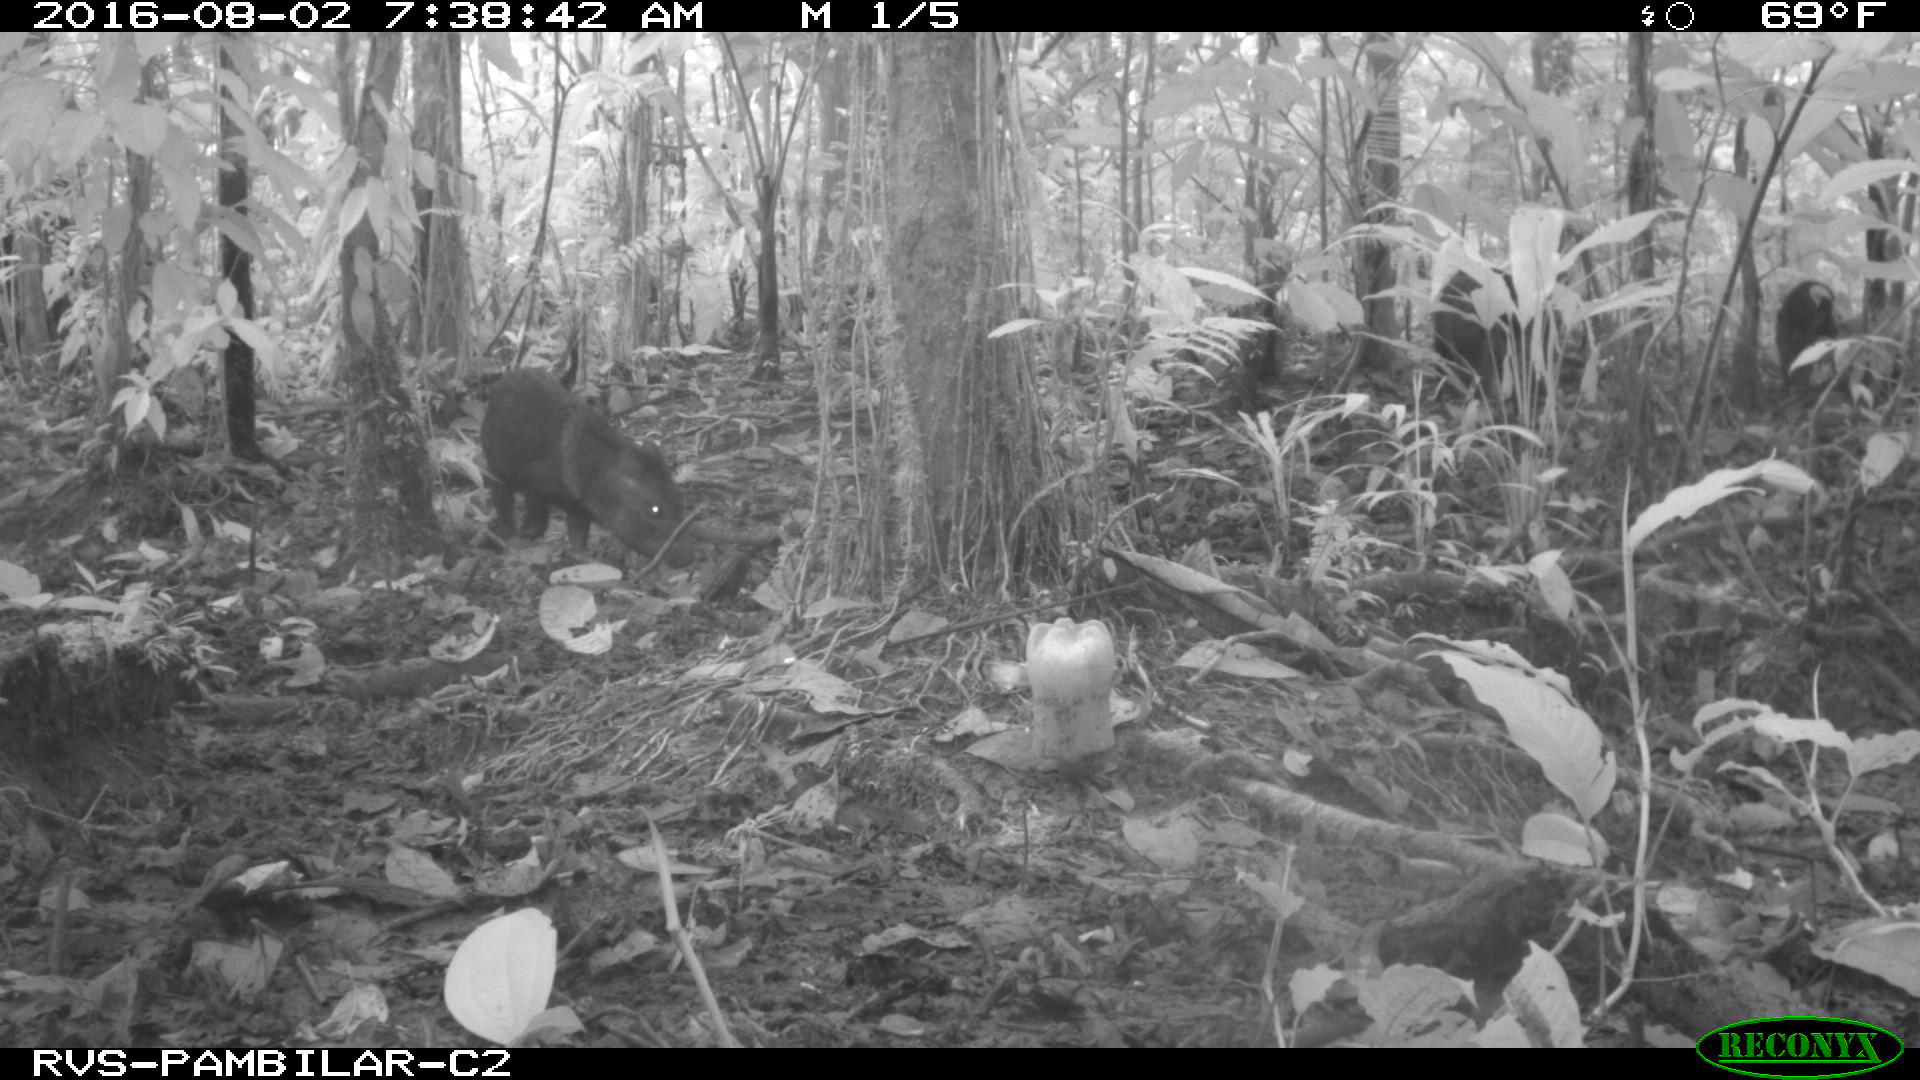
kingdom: Animalia
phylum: Chordata
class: Mammalia
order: Artiodactyla
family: Tayassuidae
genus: Pecari
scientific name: Pecari tajacu
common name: Collared peccary
